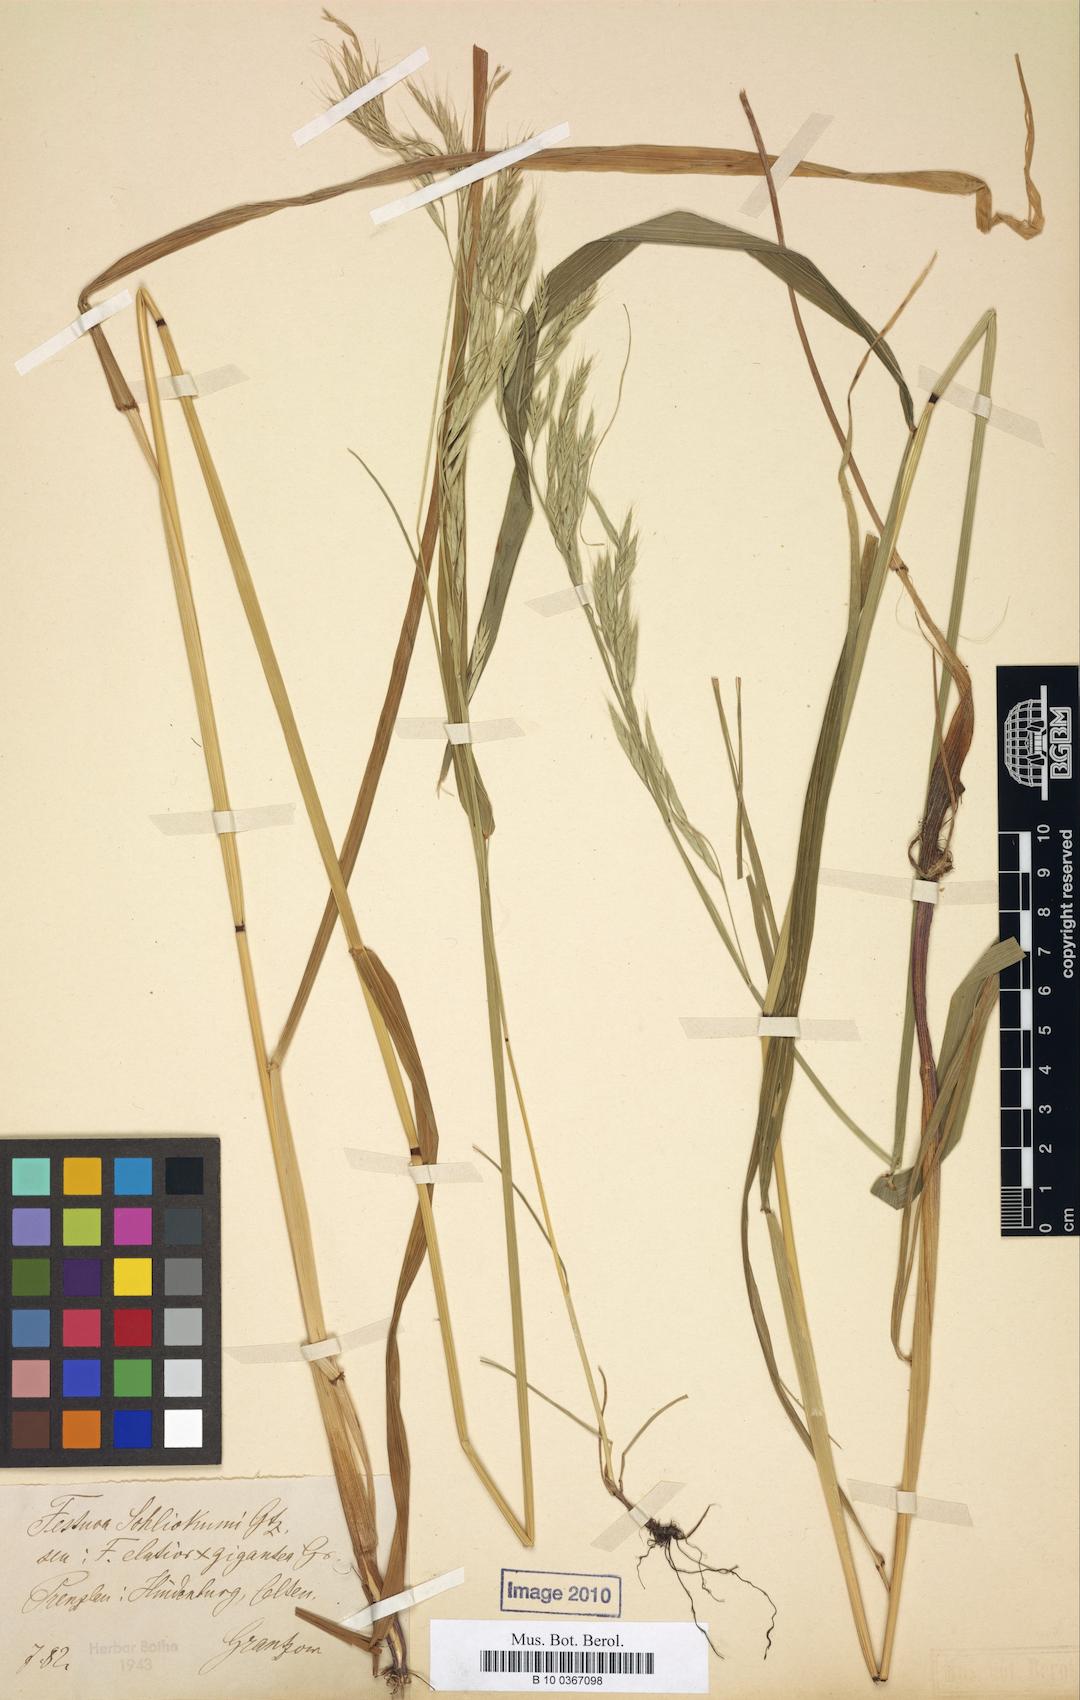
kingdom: Plantae
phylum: Tracheophyta
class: Liliopsida
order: Poales
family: Poaceae
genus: Lolium
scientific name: Lolium schlickumii
